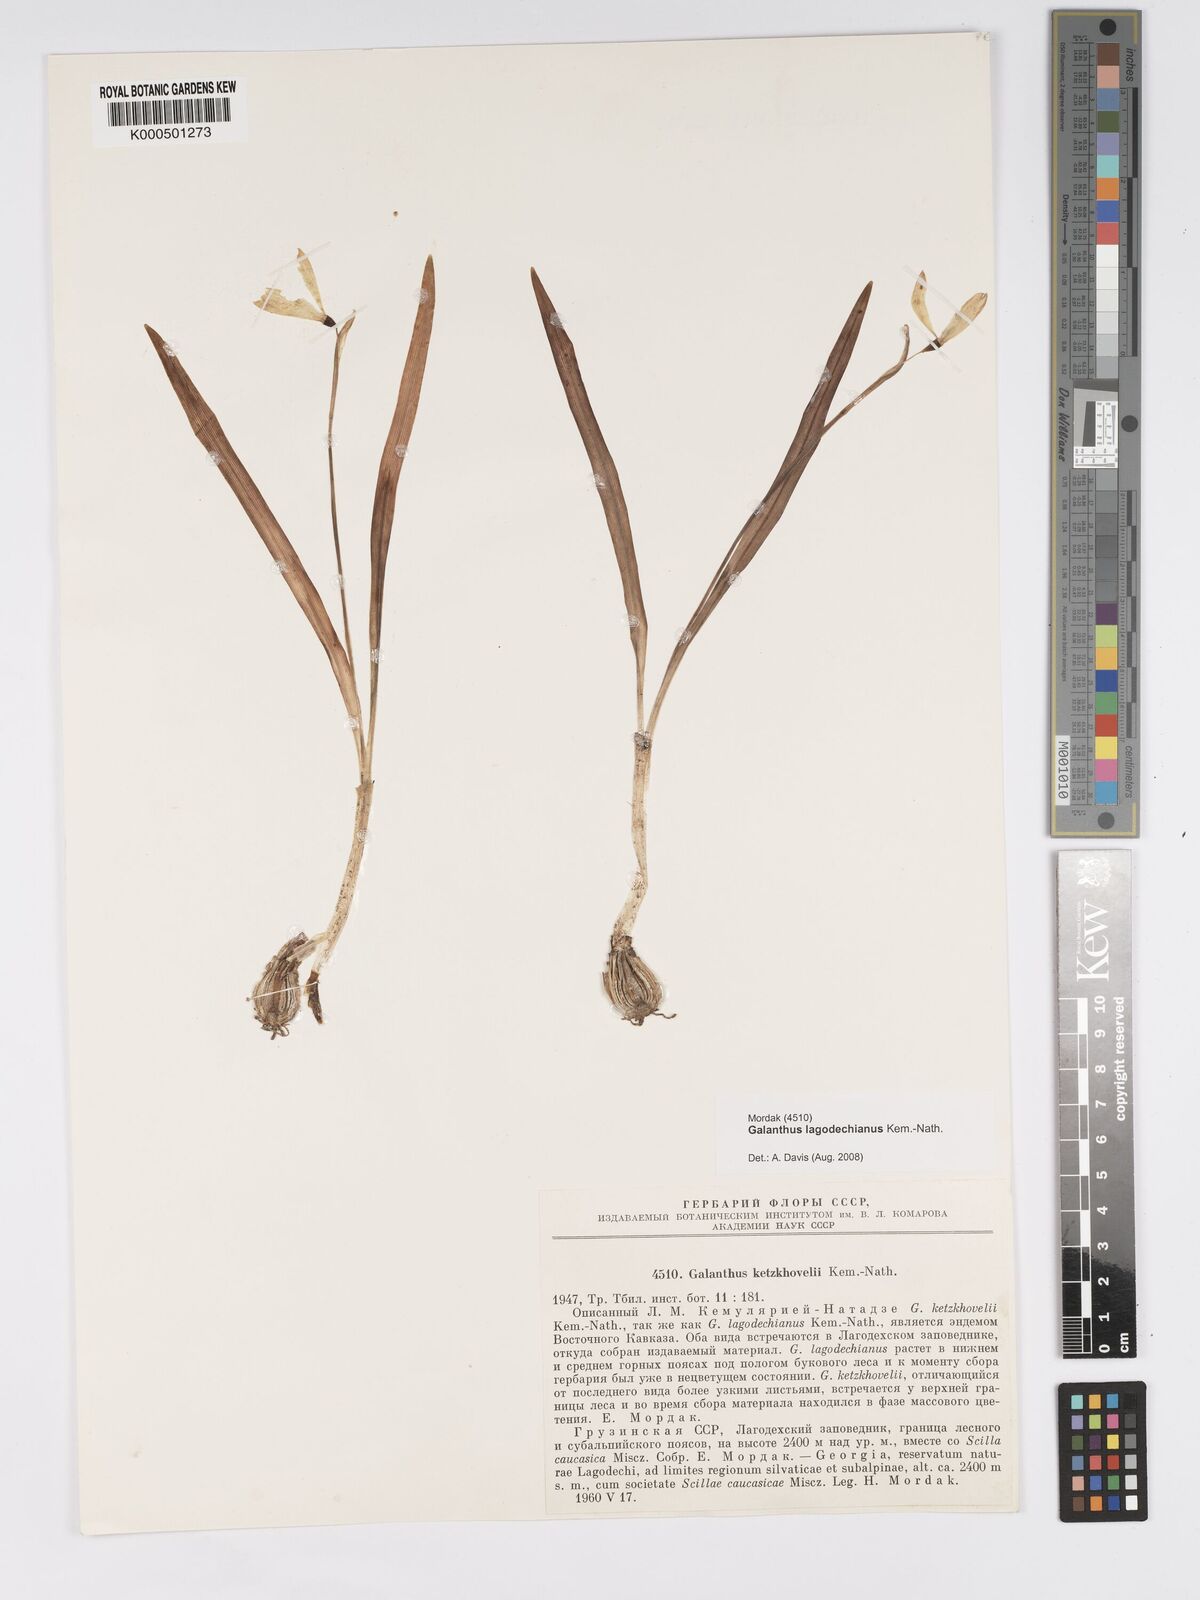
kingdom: Plantae
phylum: Tracheophyta
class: Liliopsida
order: Asparagales
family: Amaryllidaceae
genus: Galanthus
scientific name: Galanthus lagodechianus
